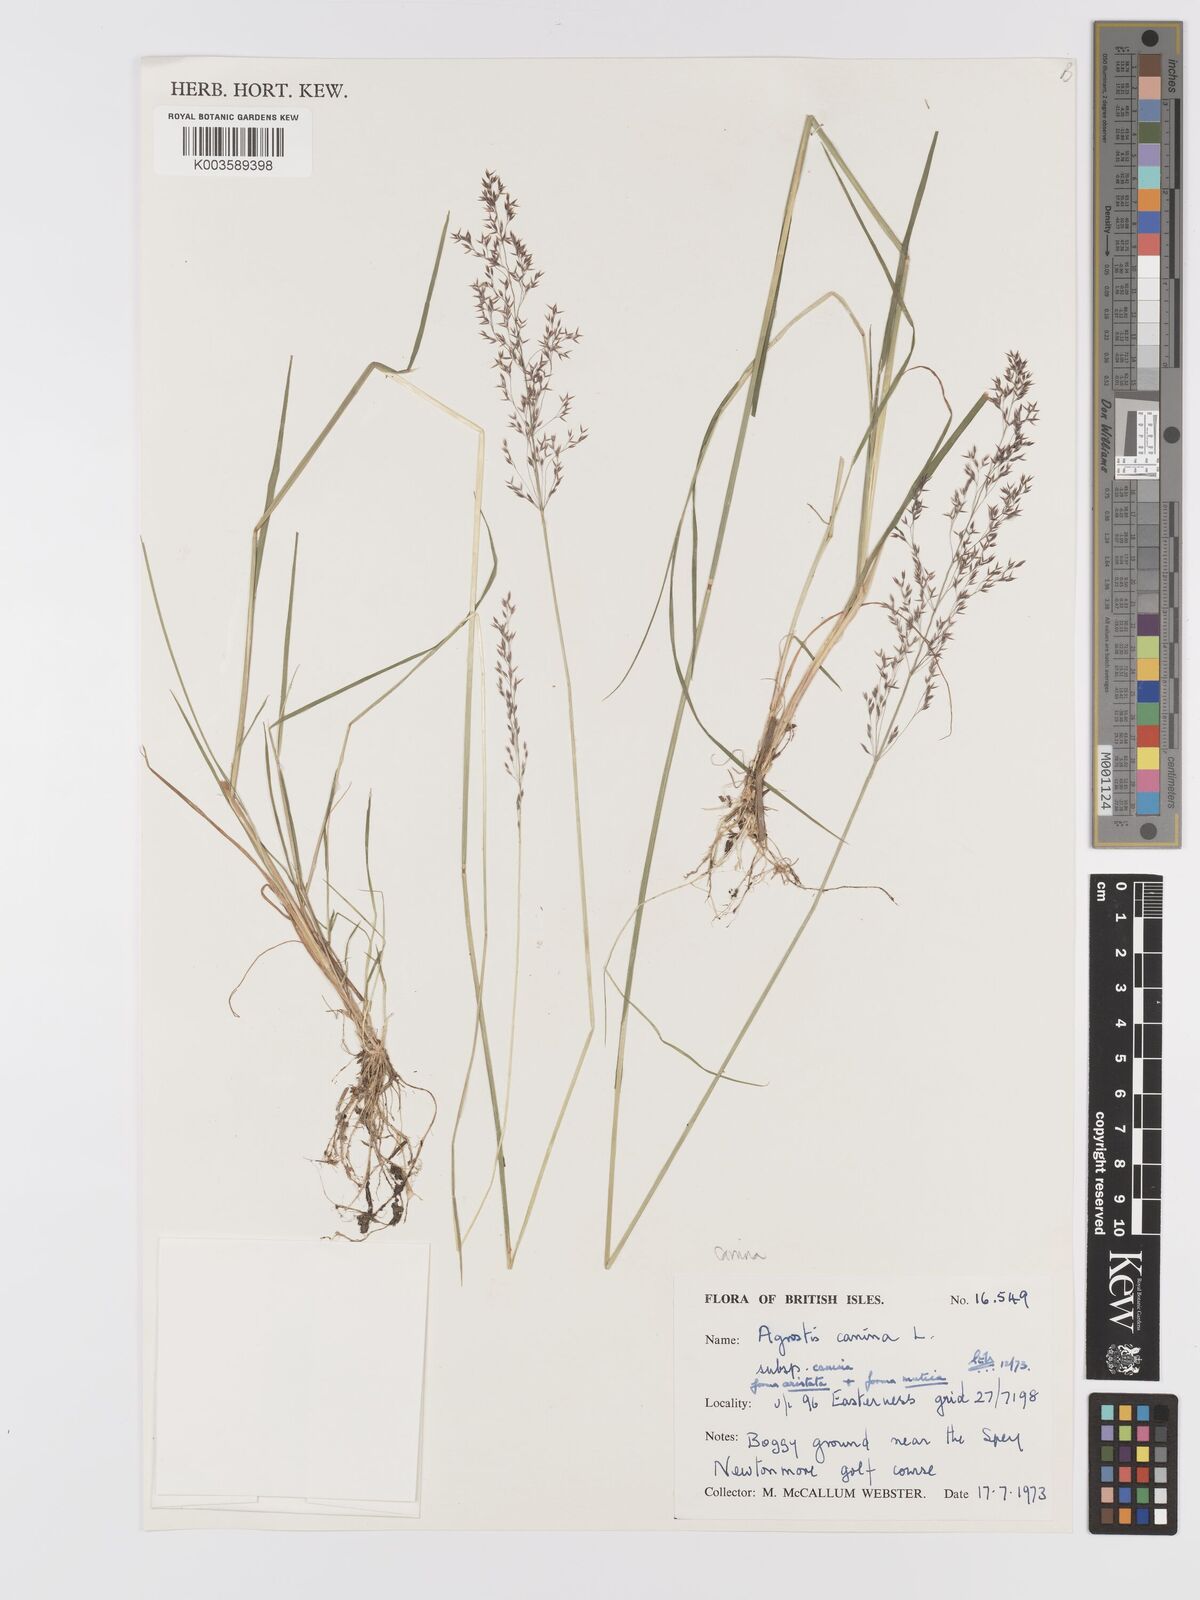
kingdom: Plantae
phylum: Tracheophyta
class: Liliopsida
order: Poales
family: Poaceae
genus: Agrostis
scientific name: Agrostis canina
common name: Velvet bent
